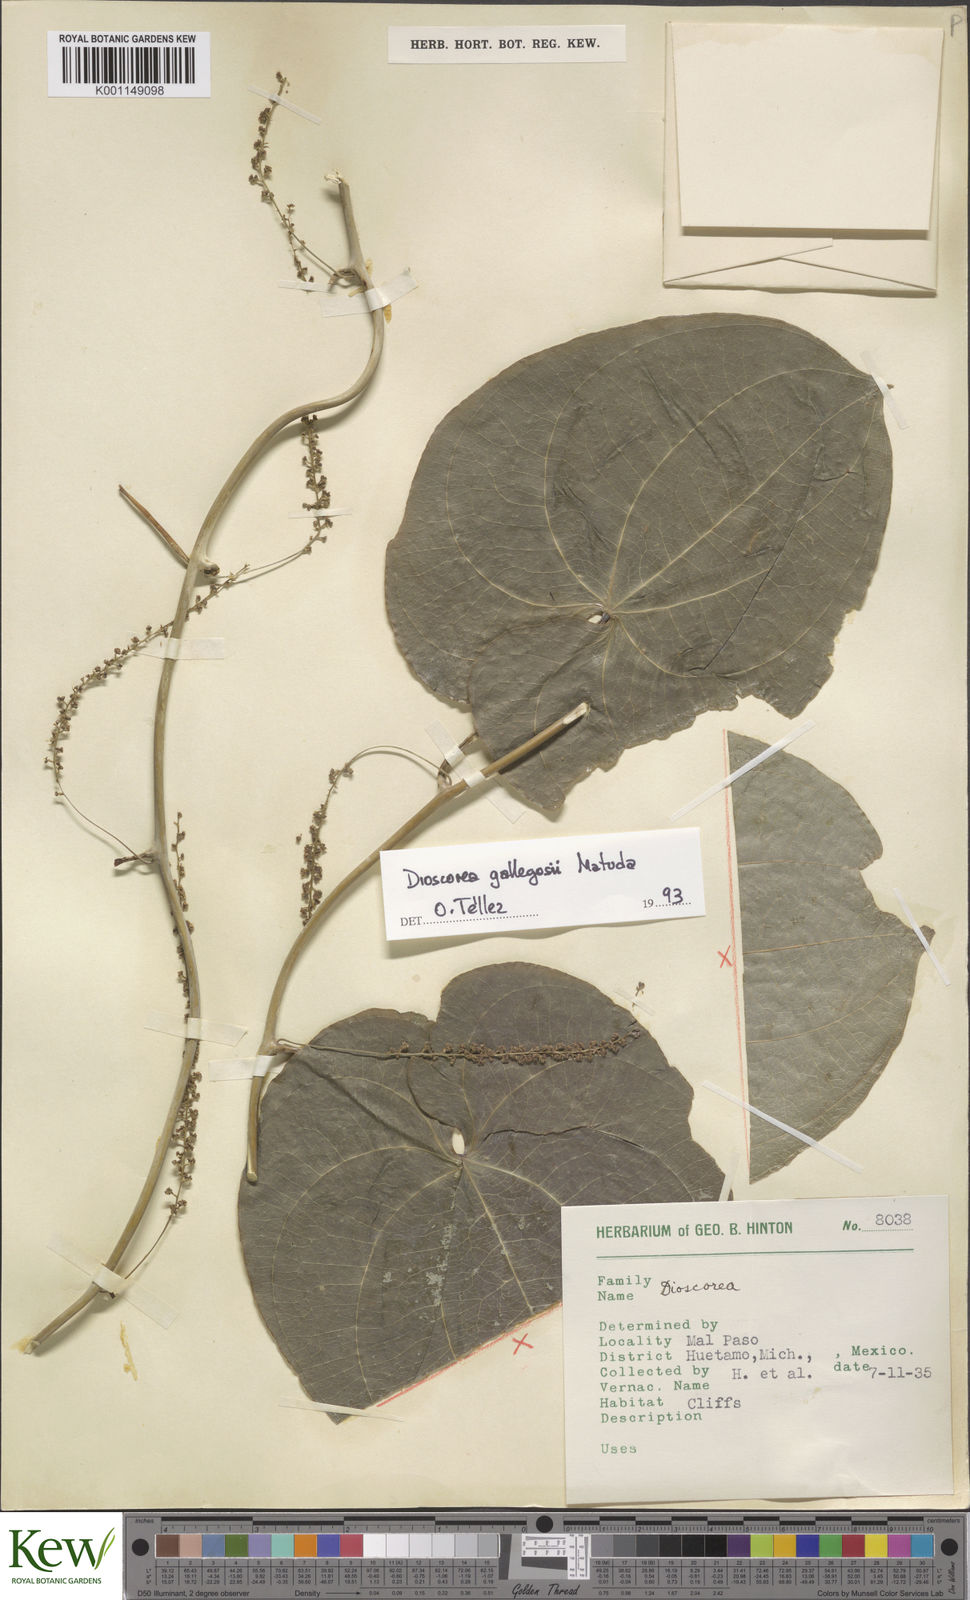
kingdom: Plantae
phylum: Tracheophyta
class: Liliopsida
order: Dioscoreales
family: Dioscoreaceae
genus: Dioscorea
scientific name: Dioscorea
